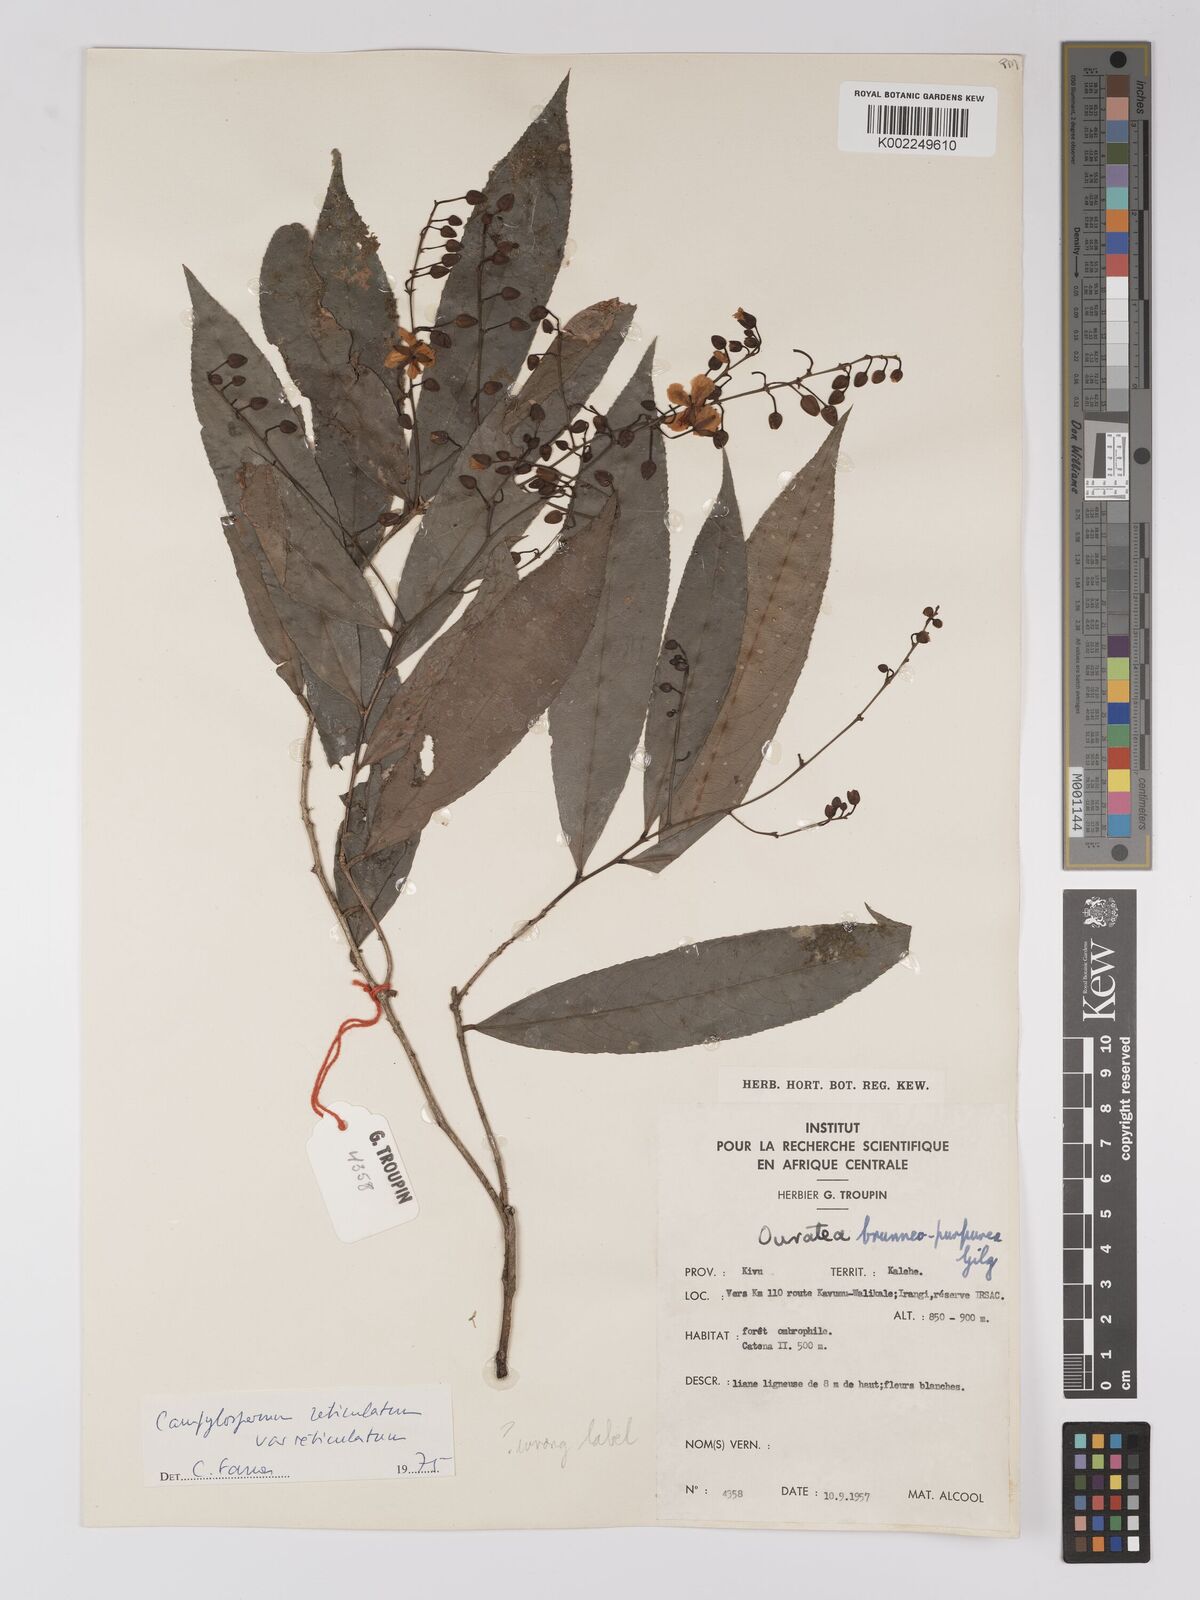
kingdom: Plantae
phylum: Tracheophyta
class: Magnoliopsida
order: Malpighiales
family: Ochnaceae
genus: Campylospermum
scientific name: Campylospermum reticulatum
